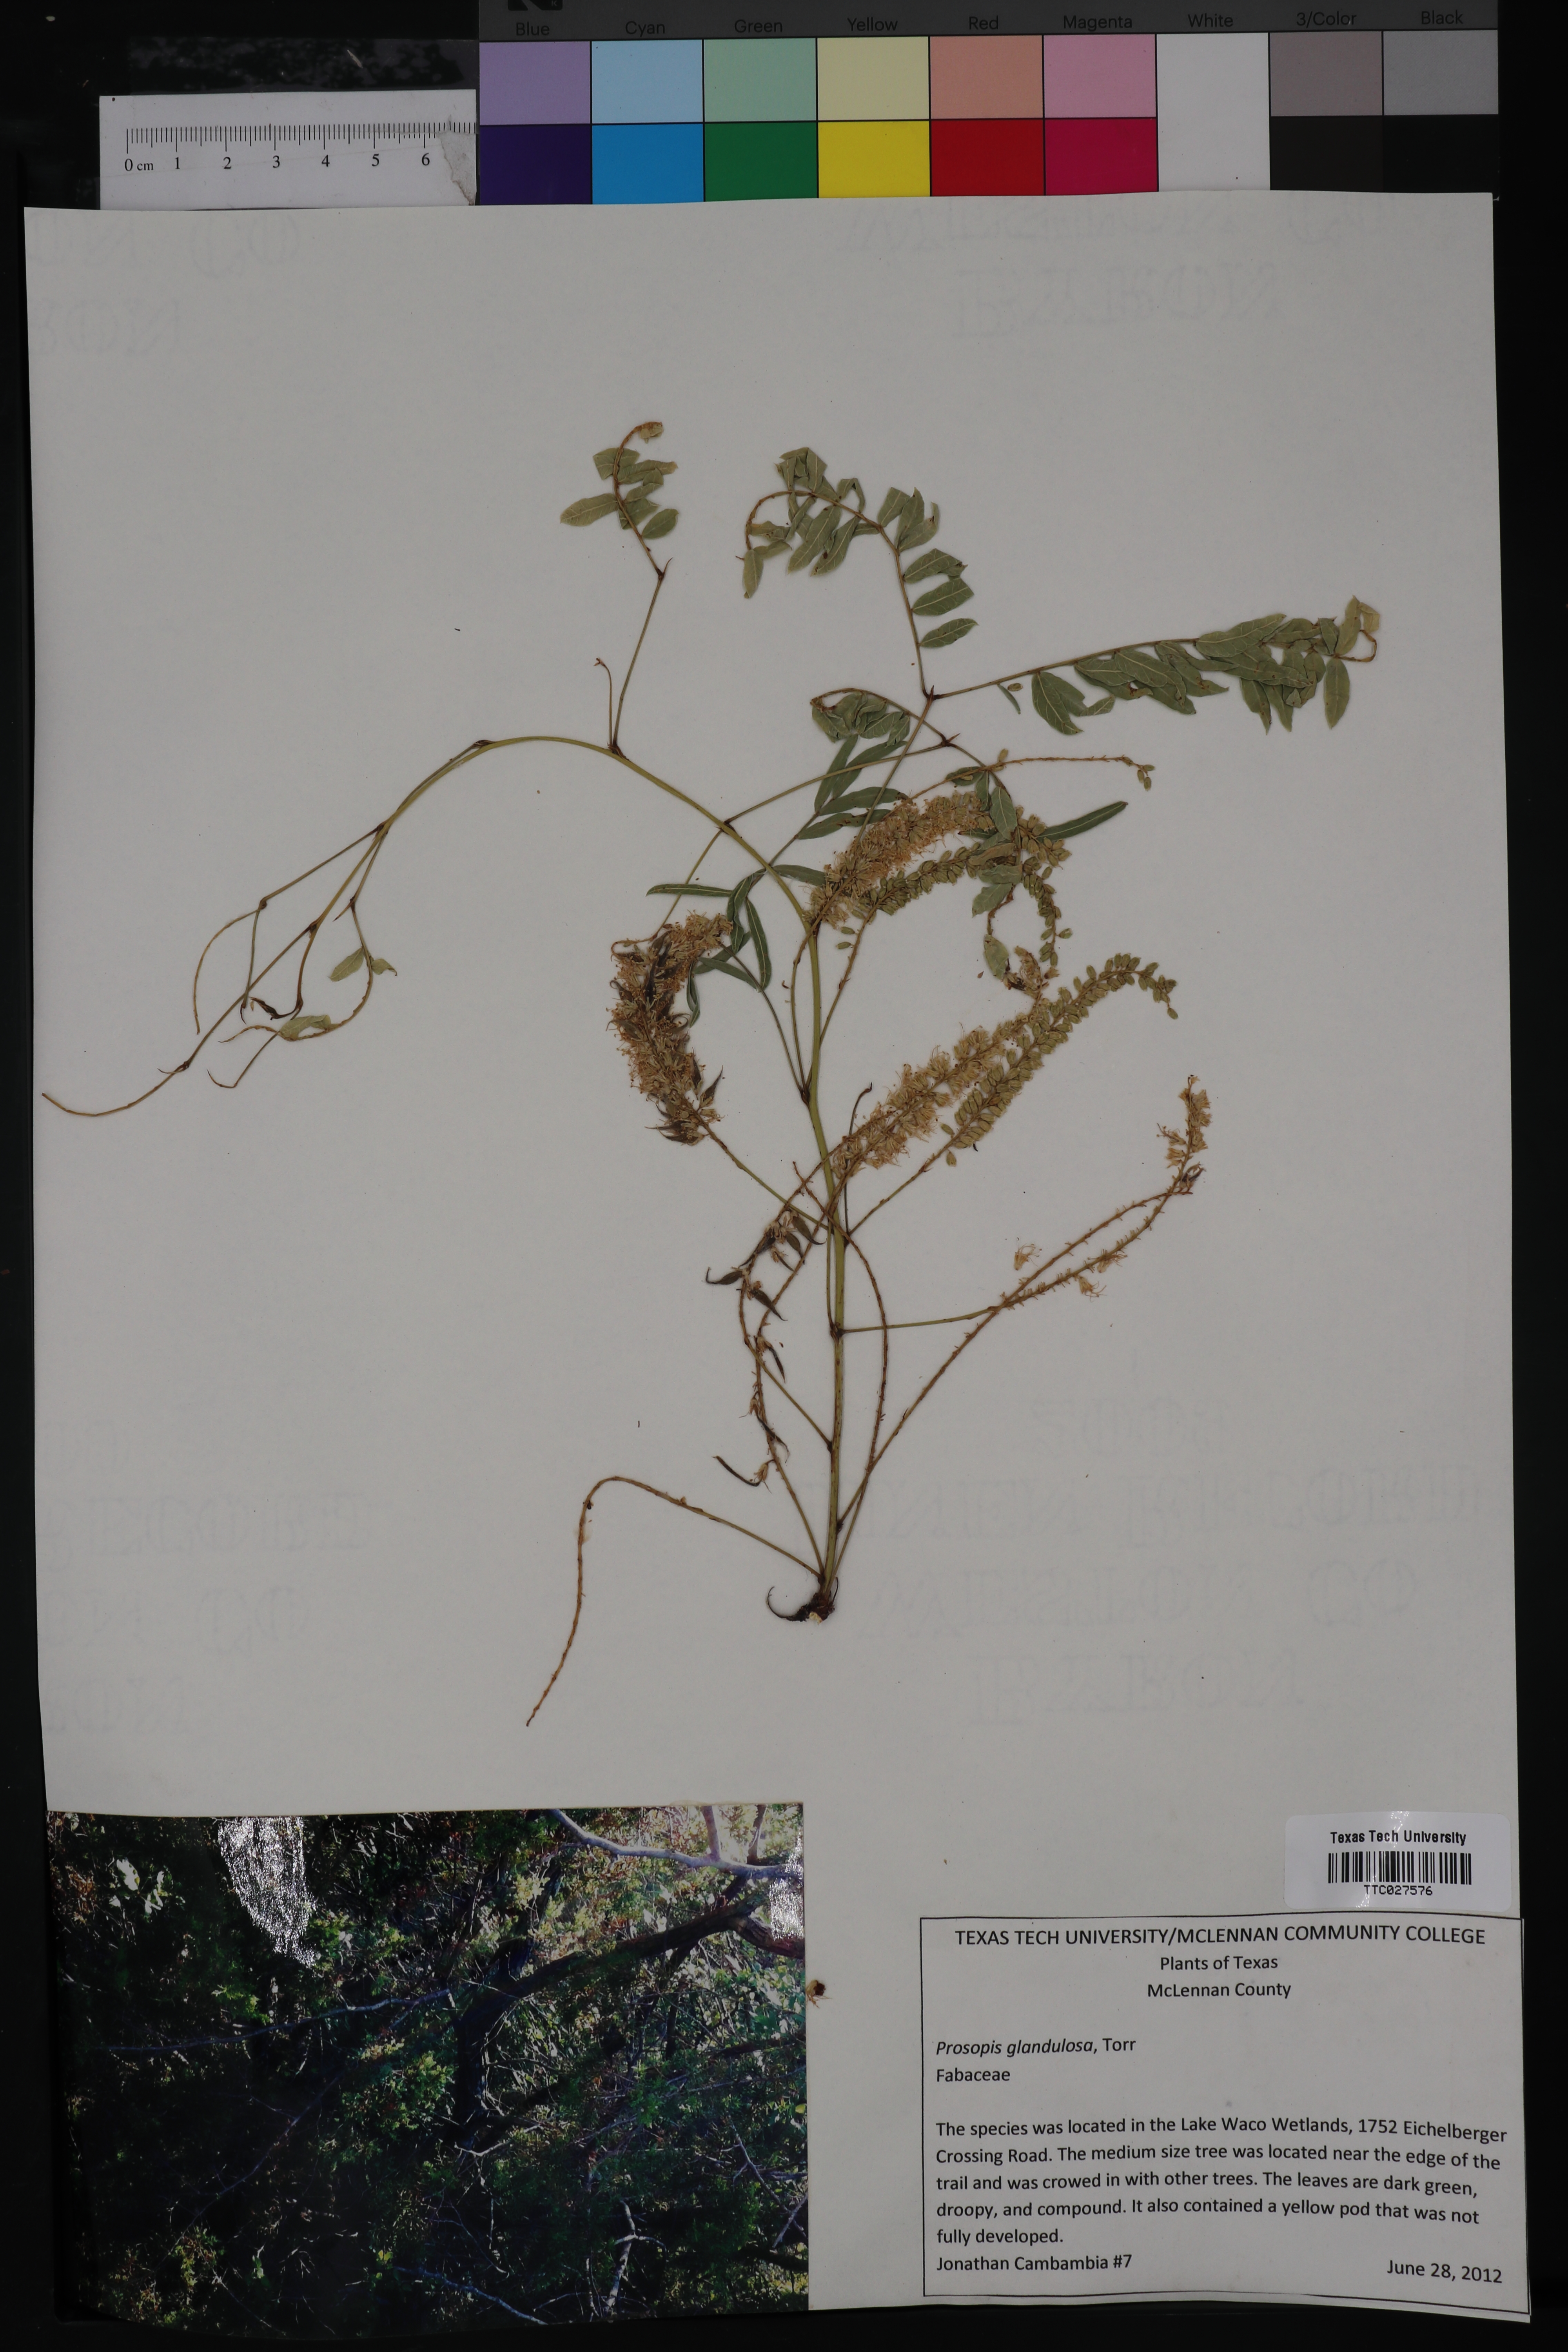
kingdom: Plantae
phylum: Tracheophyta
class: Magnoliopsida
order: Fabales
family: Fabaceae
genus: Prosopis
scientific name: Prosopis glandulosa
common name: Honey mesquite
